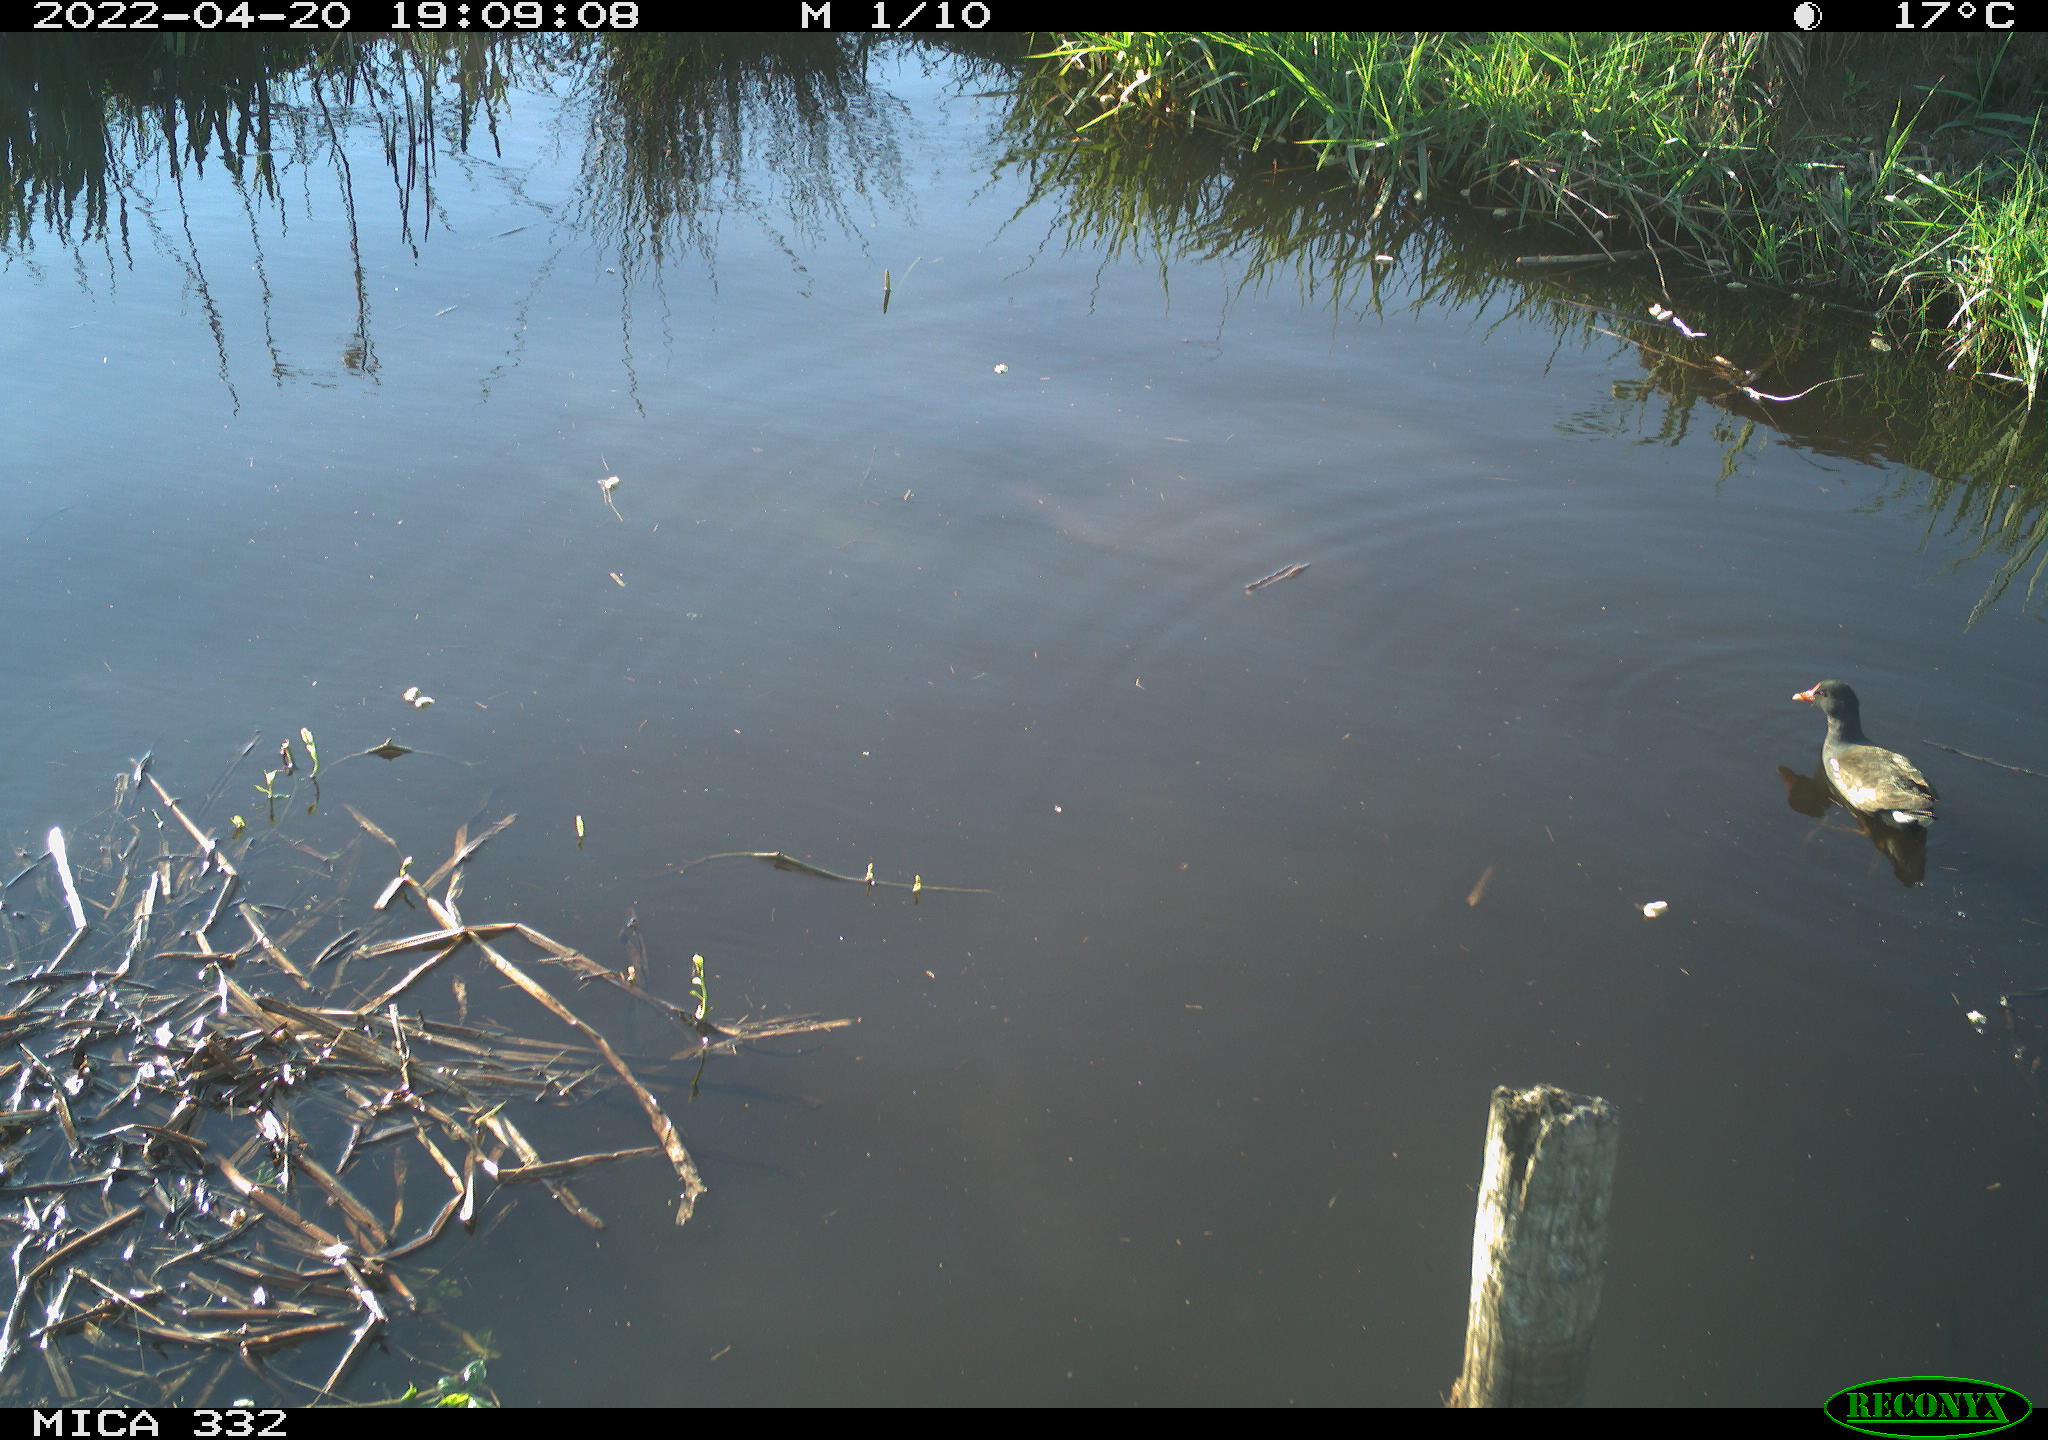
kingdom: Animalia
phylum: Chordata
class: Aves
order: Gruiformes
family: Rallidae
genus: Gallinula
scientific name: Gallinula chloropus
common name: Common moorhen
